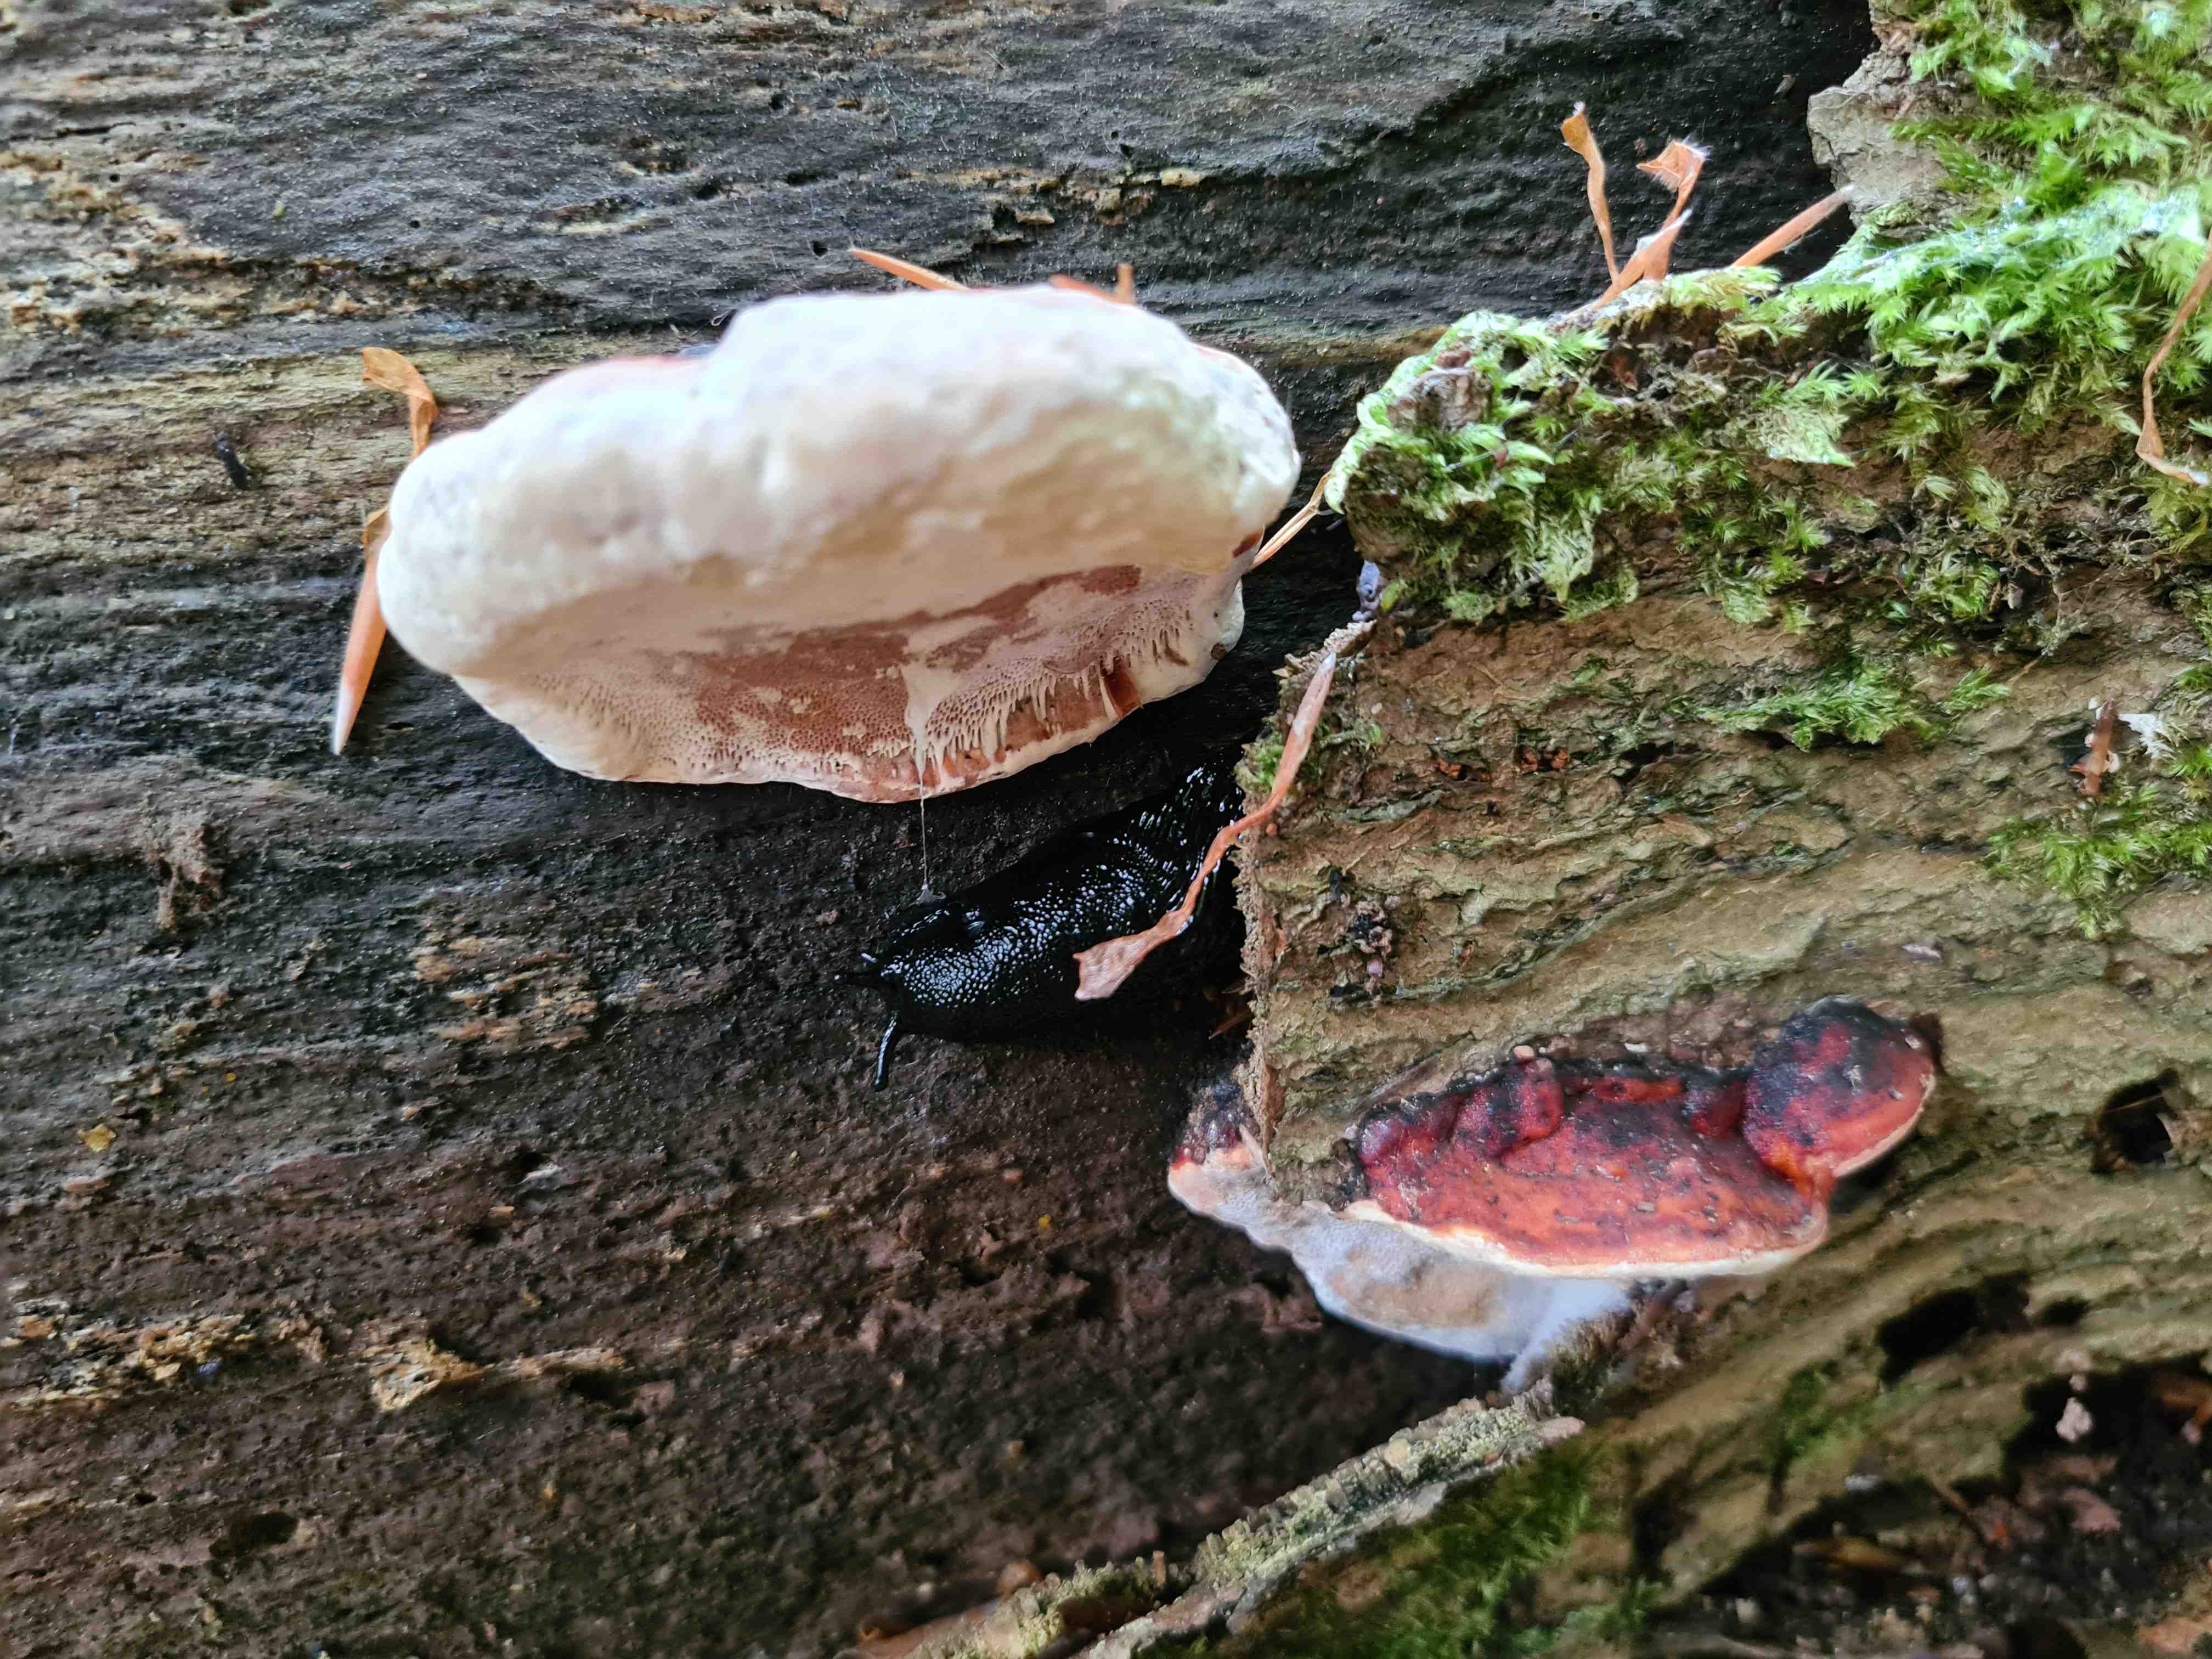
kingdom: Fungi
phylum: Basidiomycota
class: Agaricomycetes
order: Polyporales
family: Fomitopsidaceae
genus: Fomitopsis
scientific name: Fomitopsis pinicola
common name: randbæltet hovporesvamp
